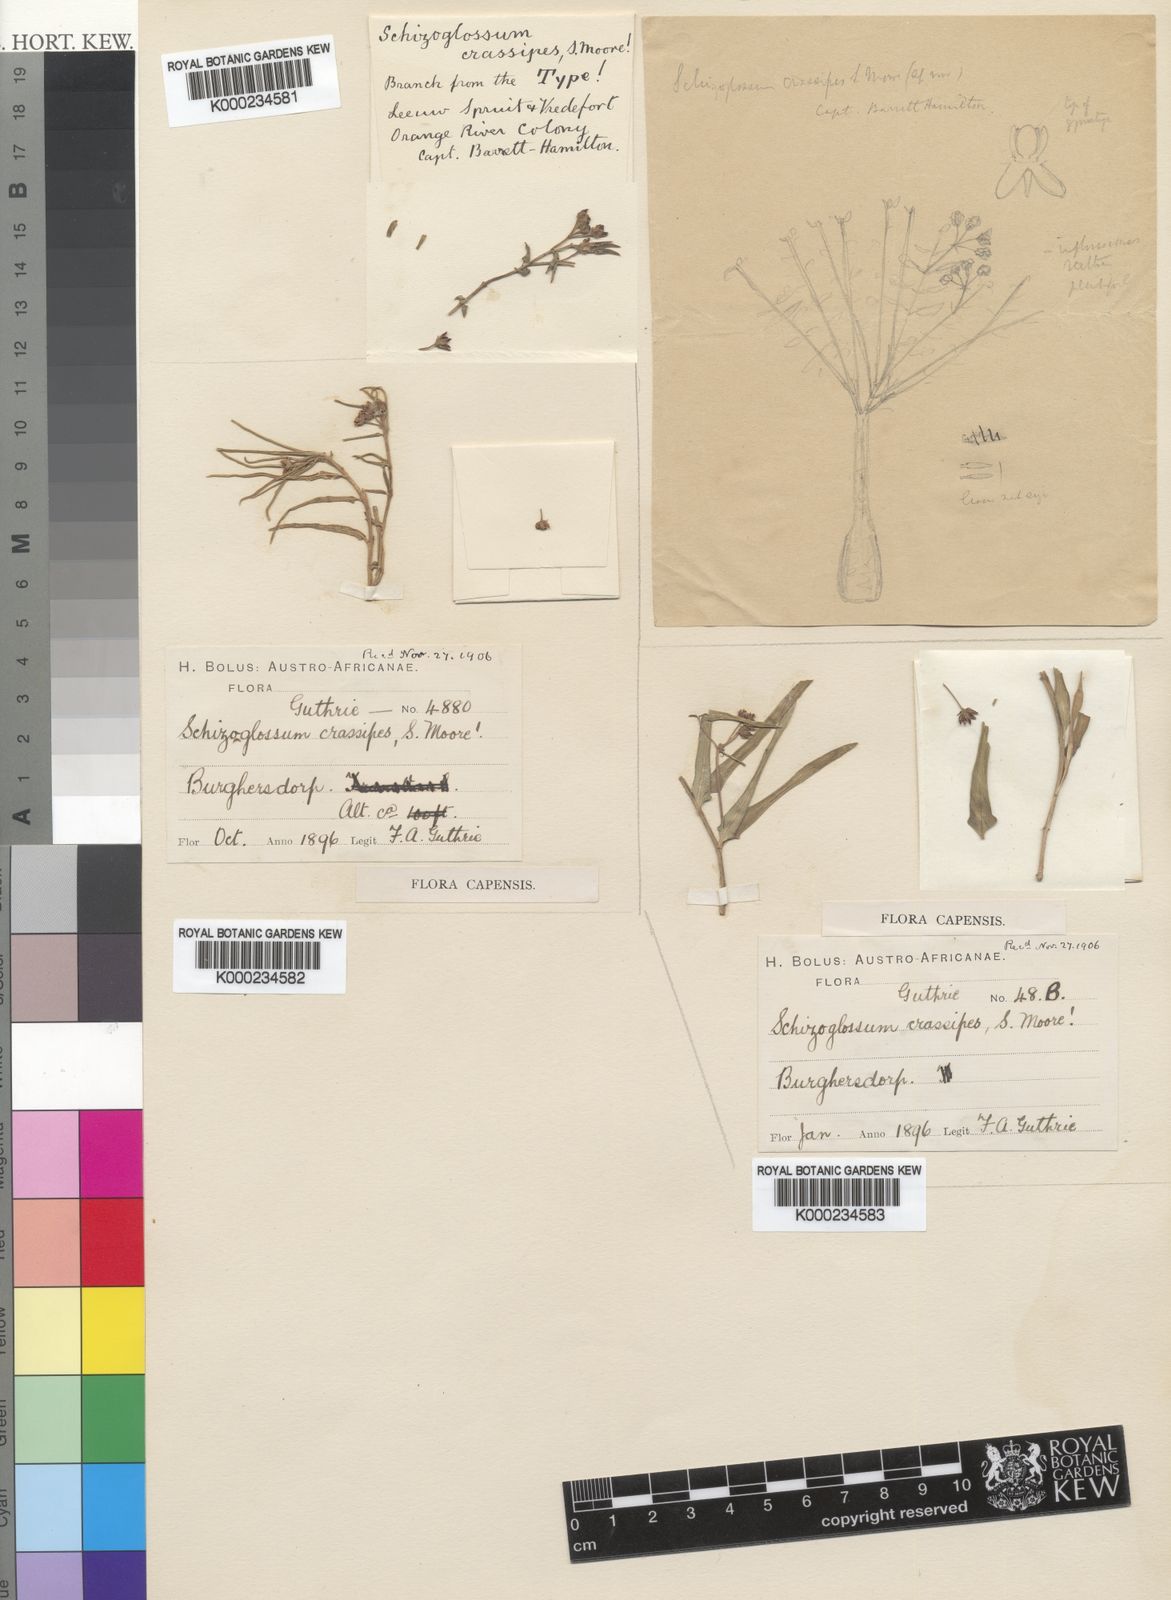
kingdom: Plantae
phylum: Tracheophyta
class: Magnoliopsida
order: Gentianales
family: Apocynaceae
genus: Stenostelma
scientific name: Stenostelma eustegioides
